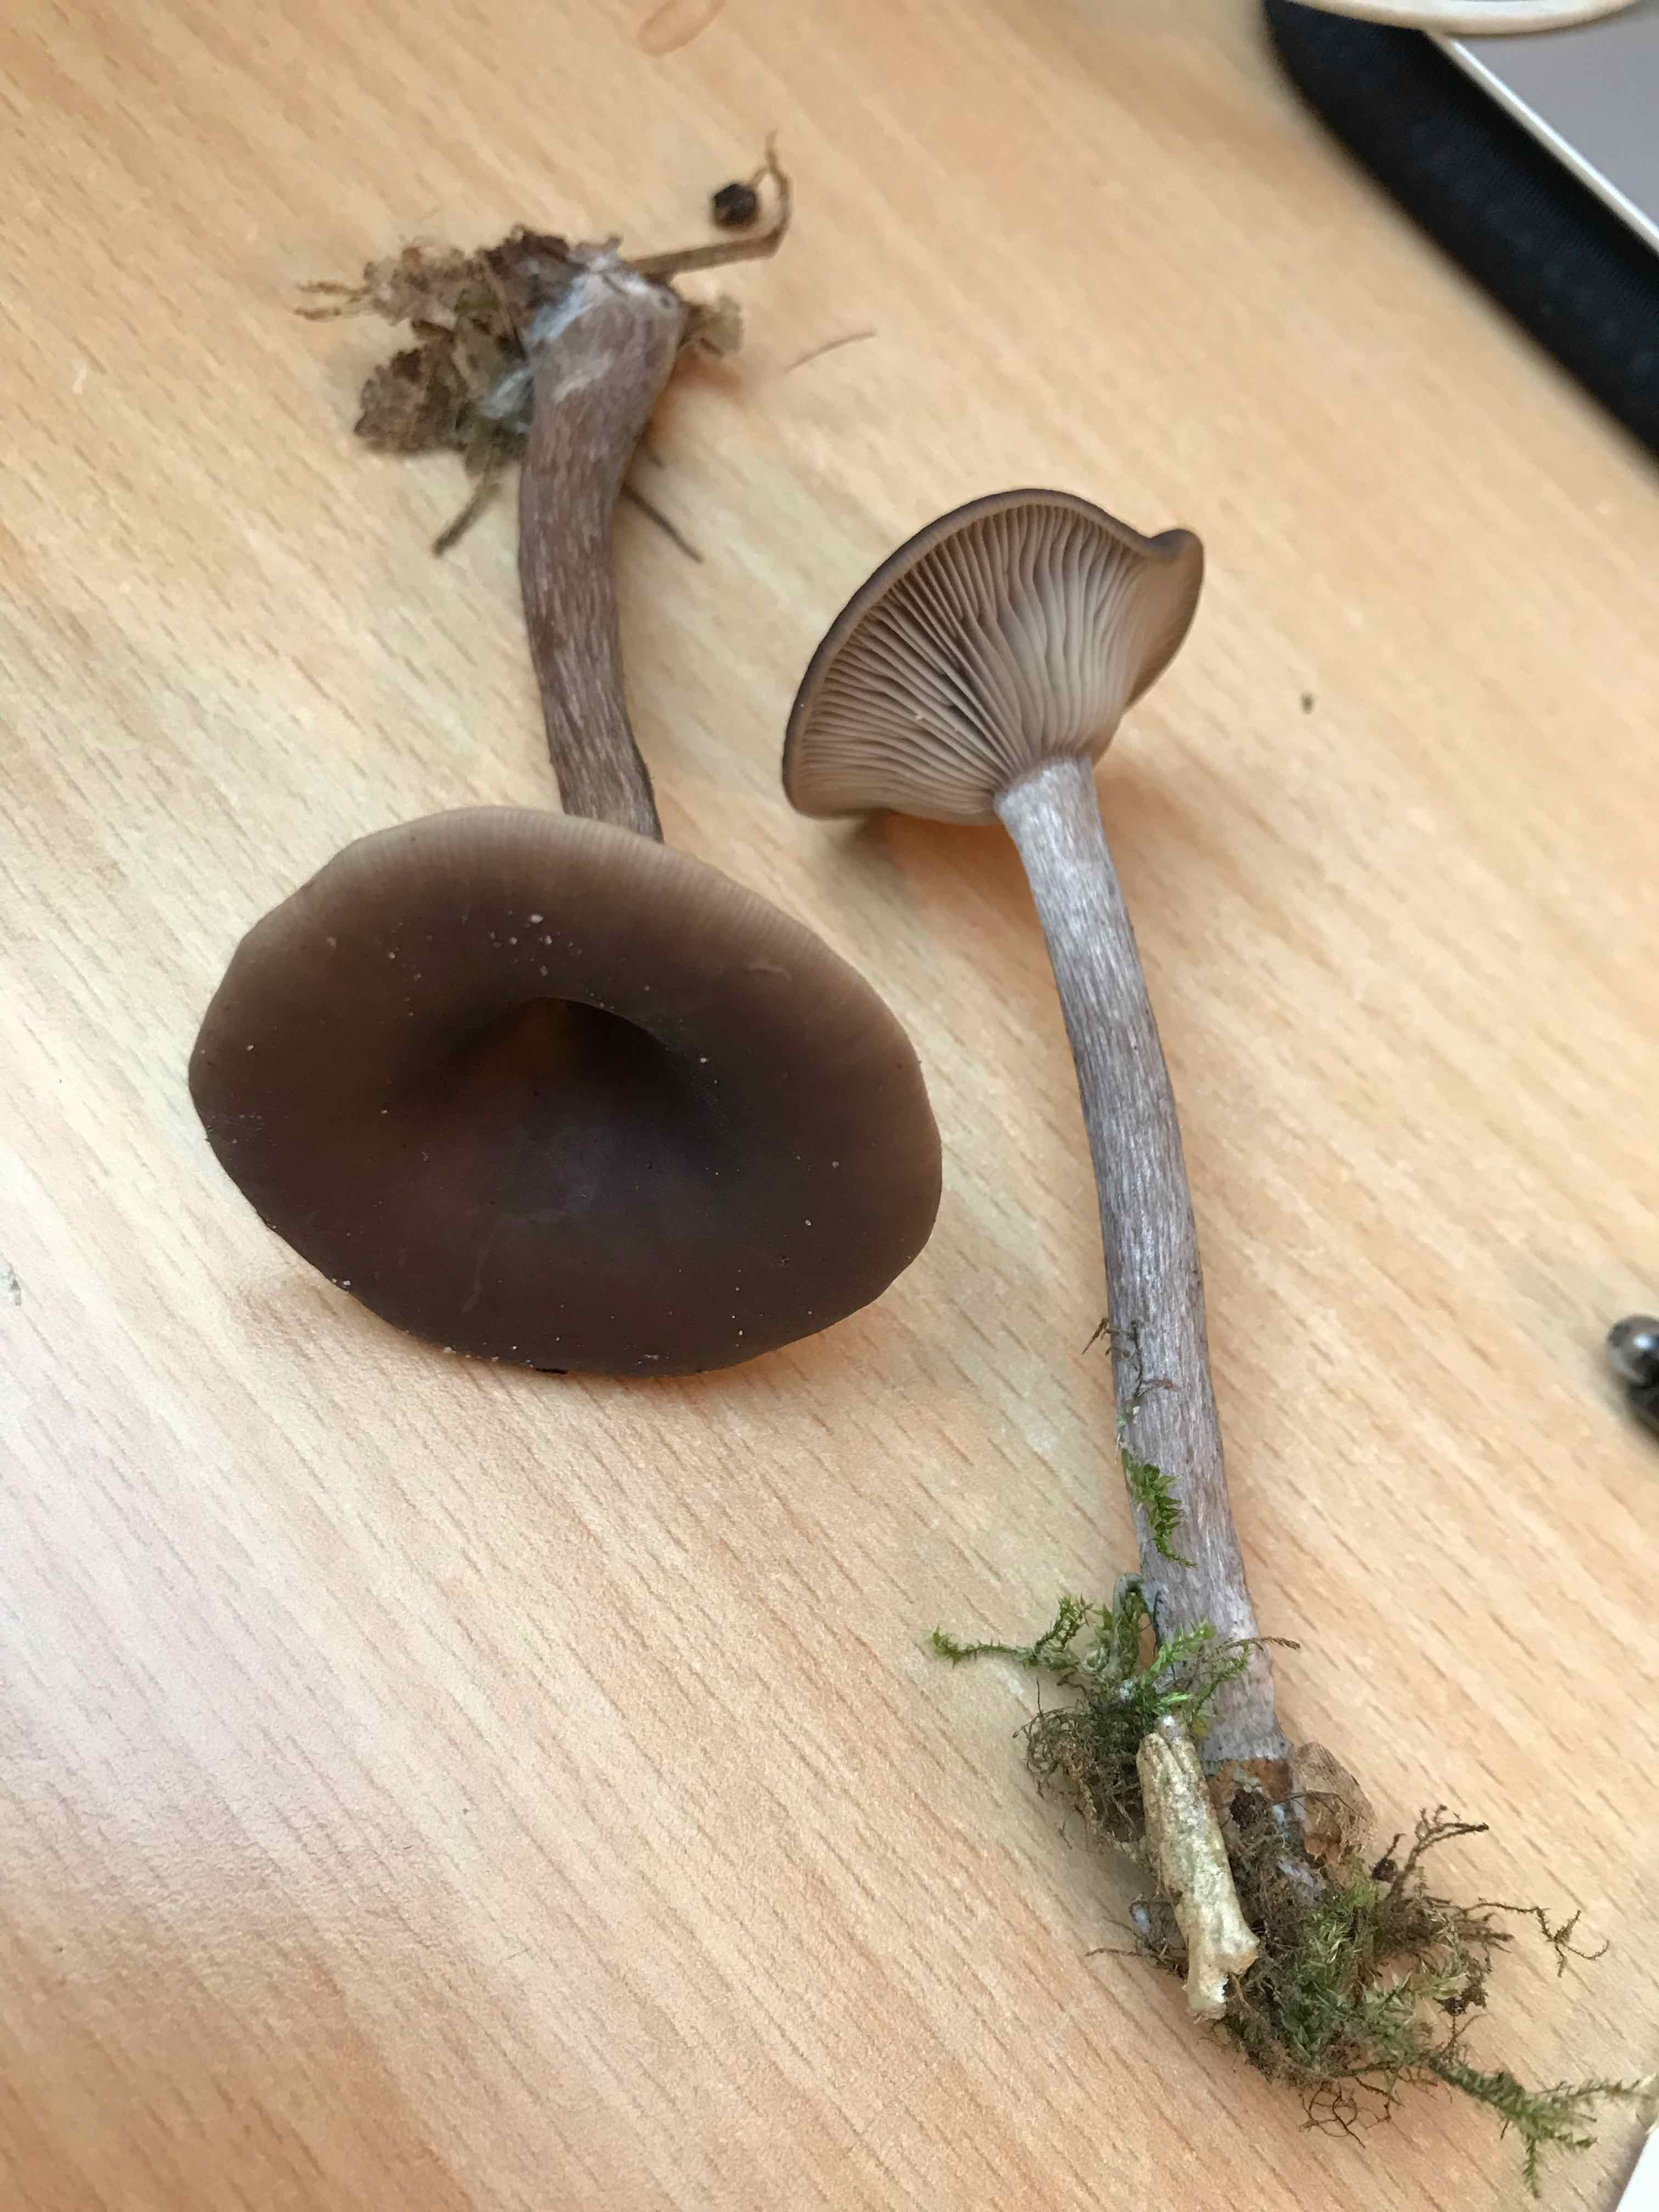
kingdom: Fungi
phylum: Basidiomycota
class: Agaricomycetes
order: Agaricales
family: Pseudoclitocybaceae
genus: Pseudoclitocybe
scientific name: Pseudoclitocybe cyathiformis
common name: almindelig bægertragthat
